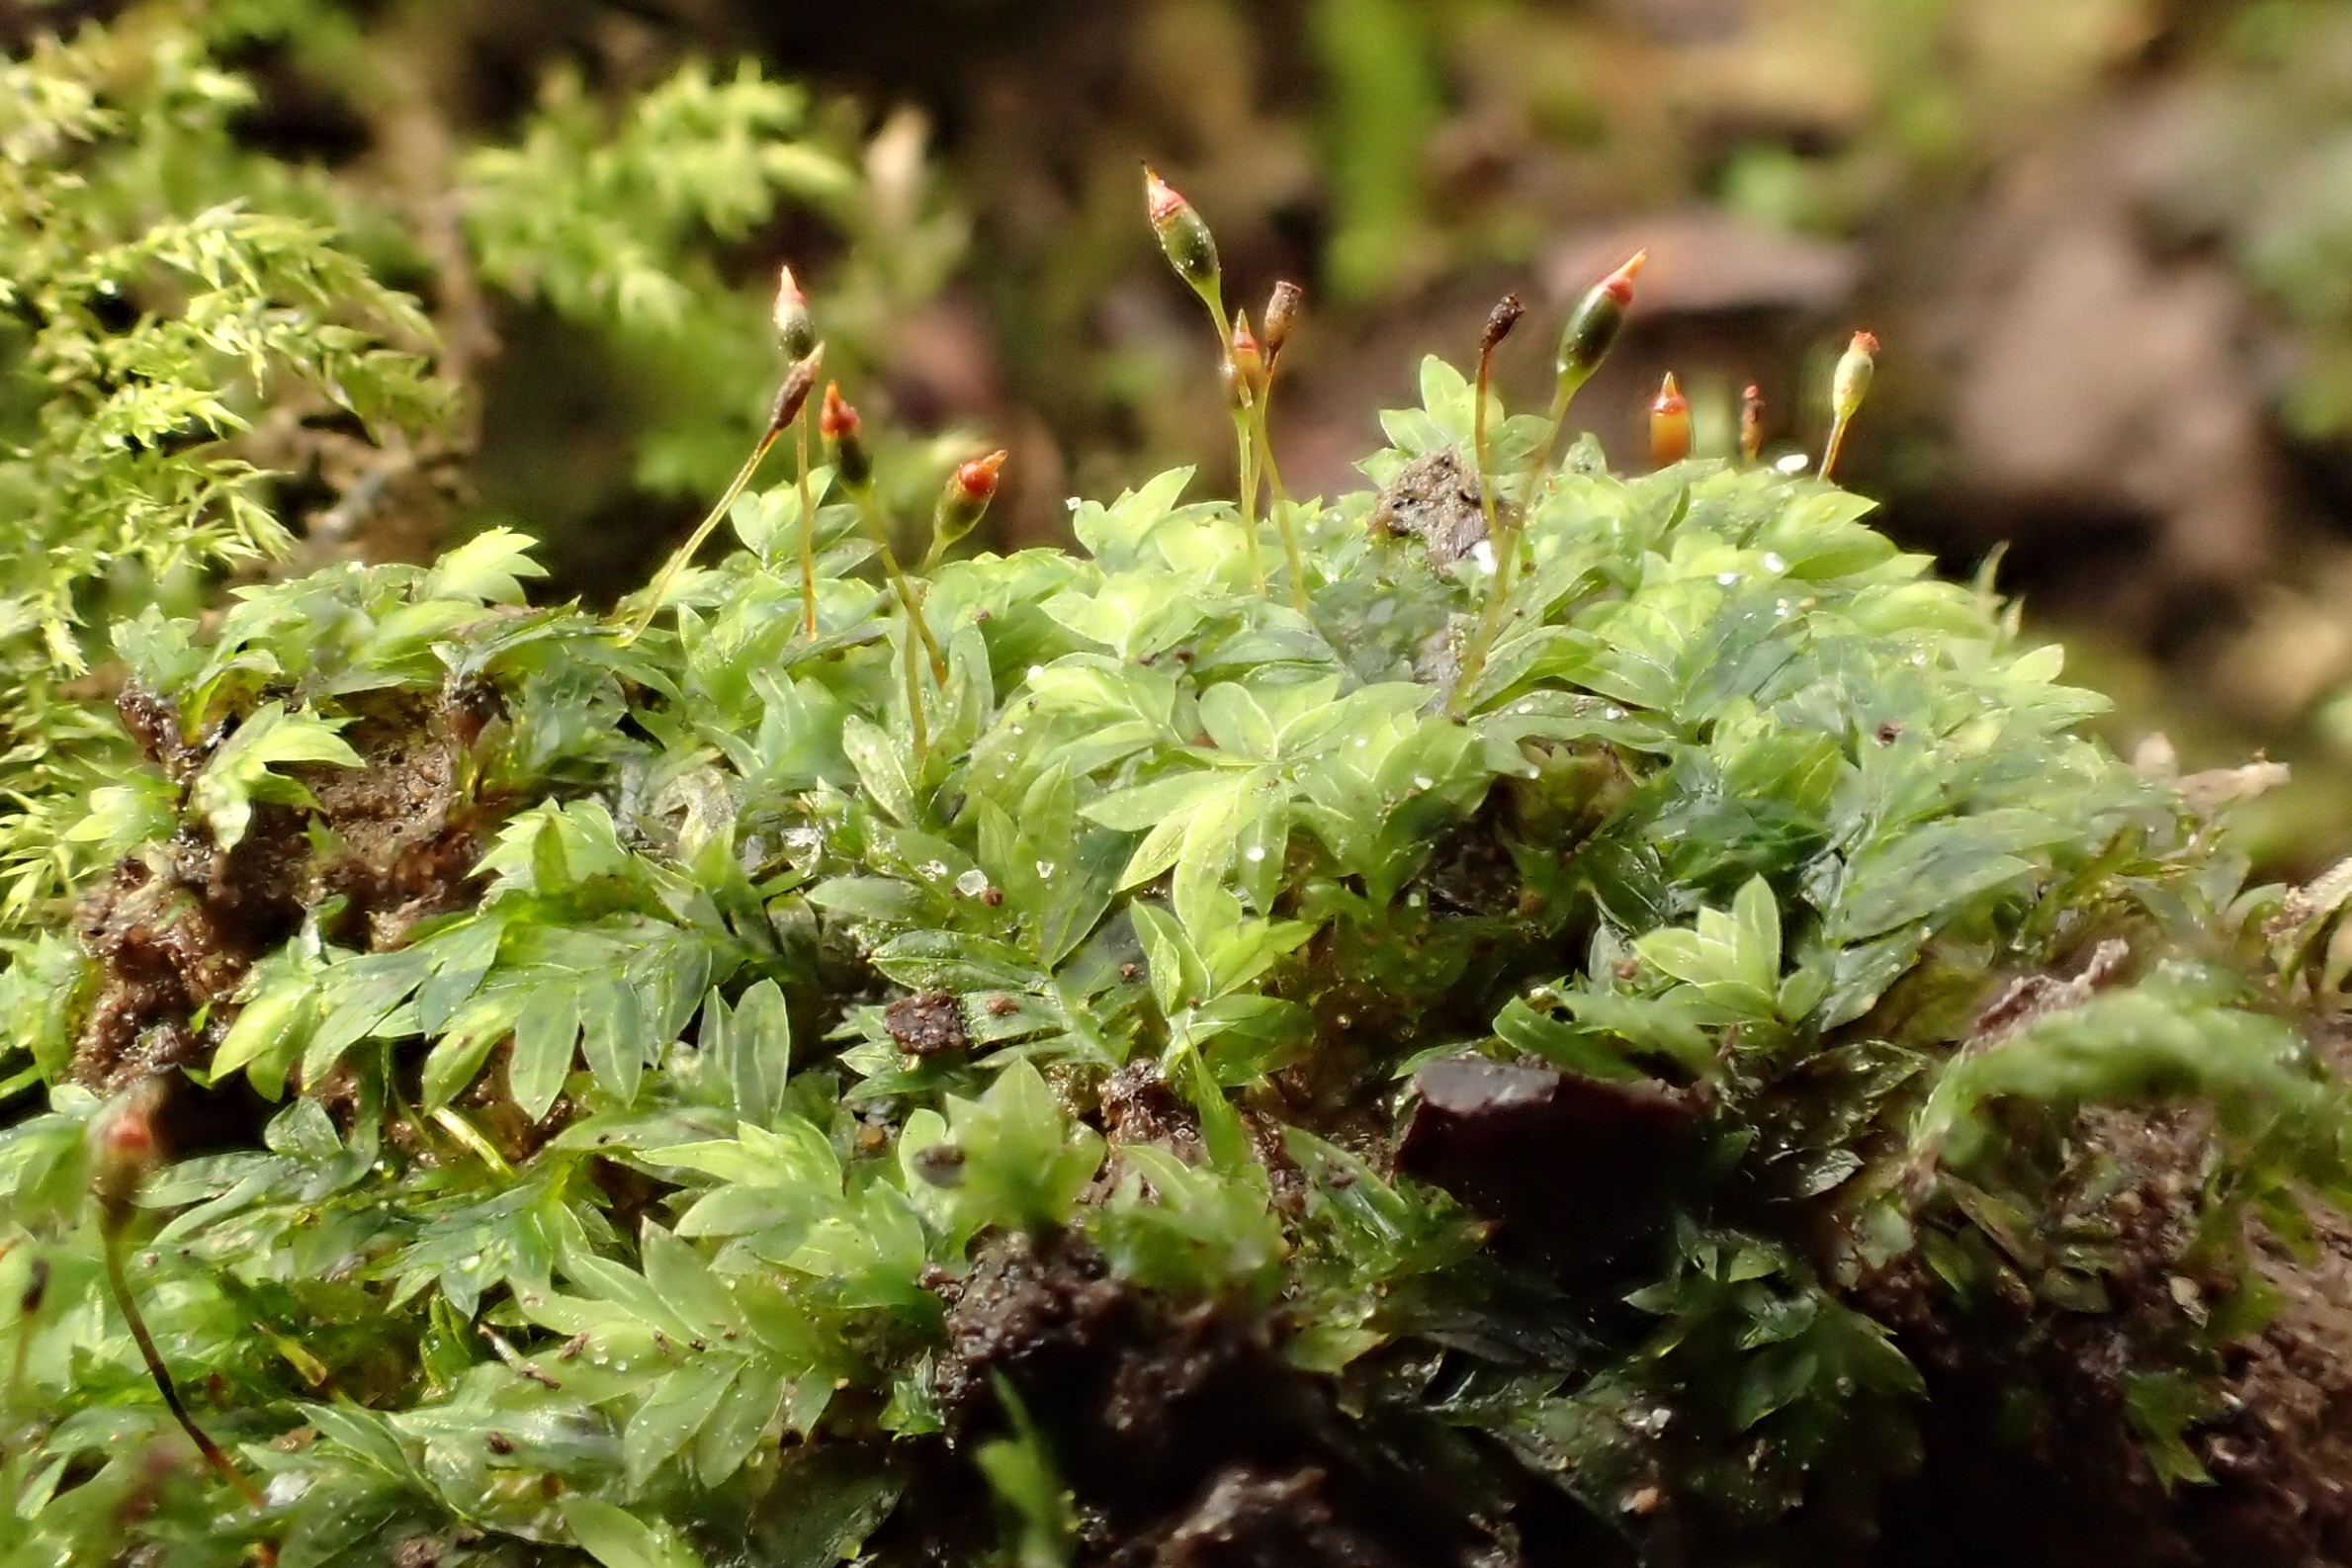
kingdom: Plantae
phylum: Bryophyta
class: Bryopsida
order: Dicranales
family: Fissidentaceae
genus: Fissidens
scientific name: Fissidens bryoides
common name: Top-rademos
